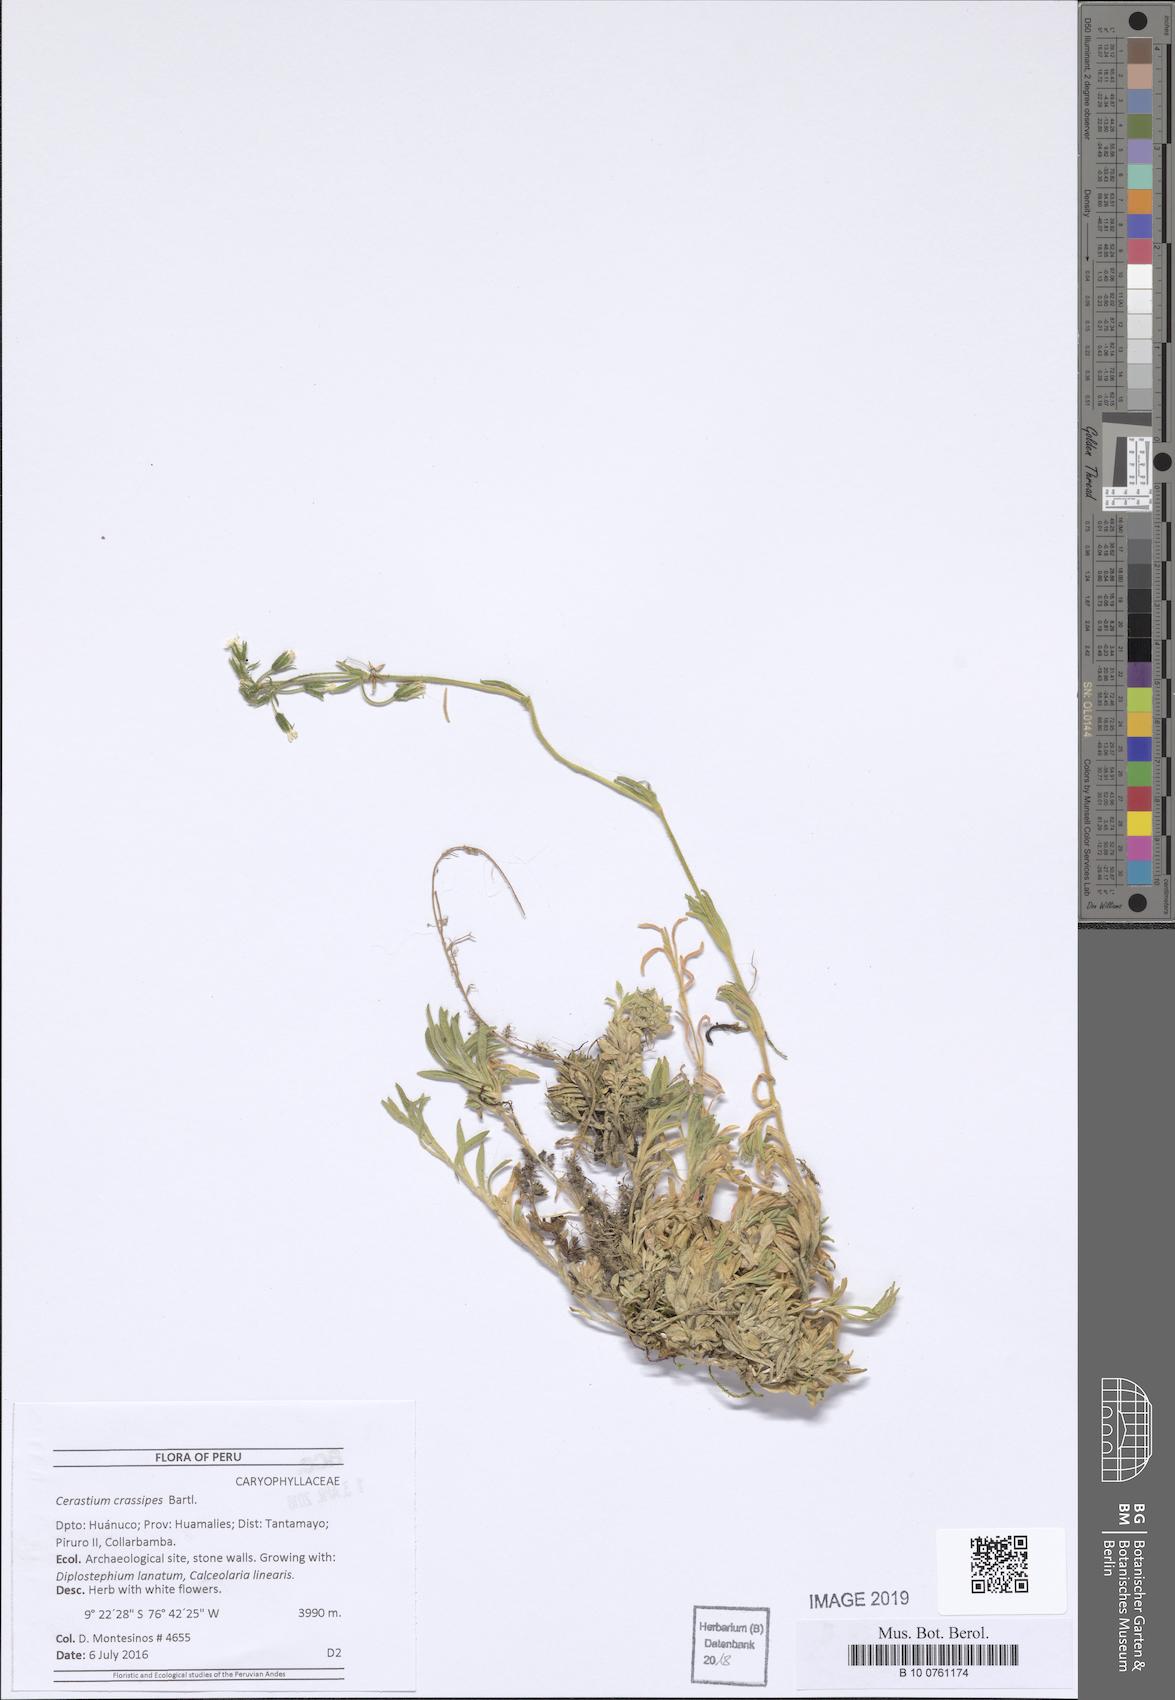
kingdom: Plantae
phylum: Tracheophyta
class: Magnoliopsida
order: Caryophyllales
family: Caryophyllaceae
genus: Cerastium
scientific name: Cerastium crassipes
